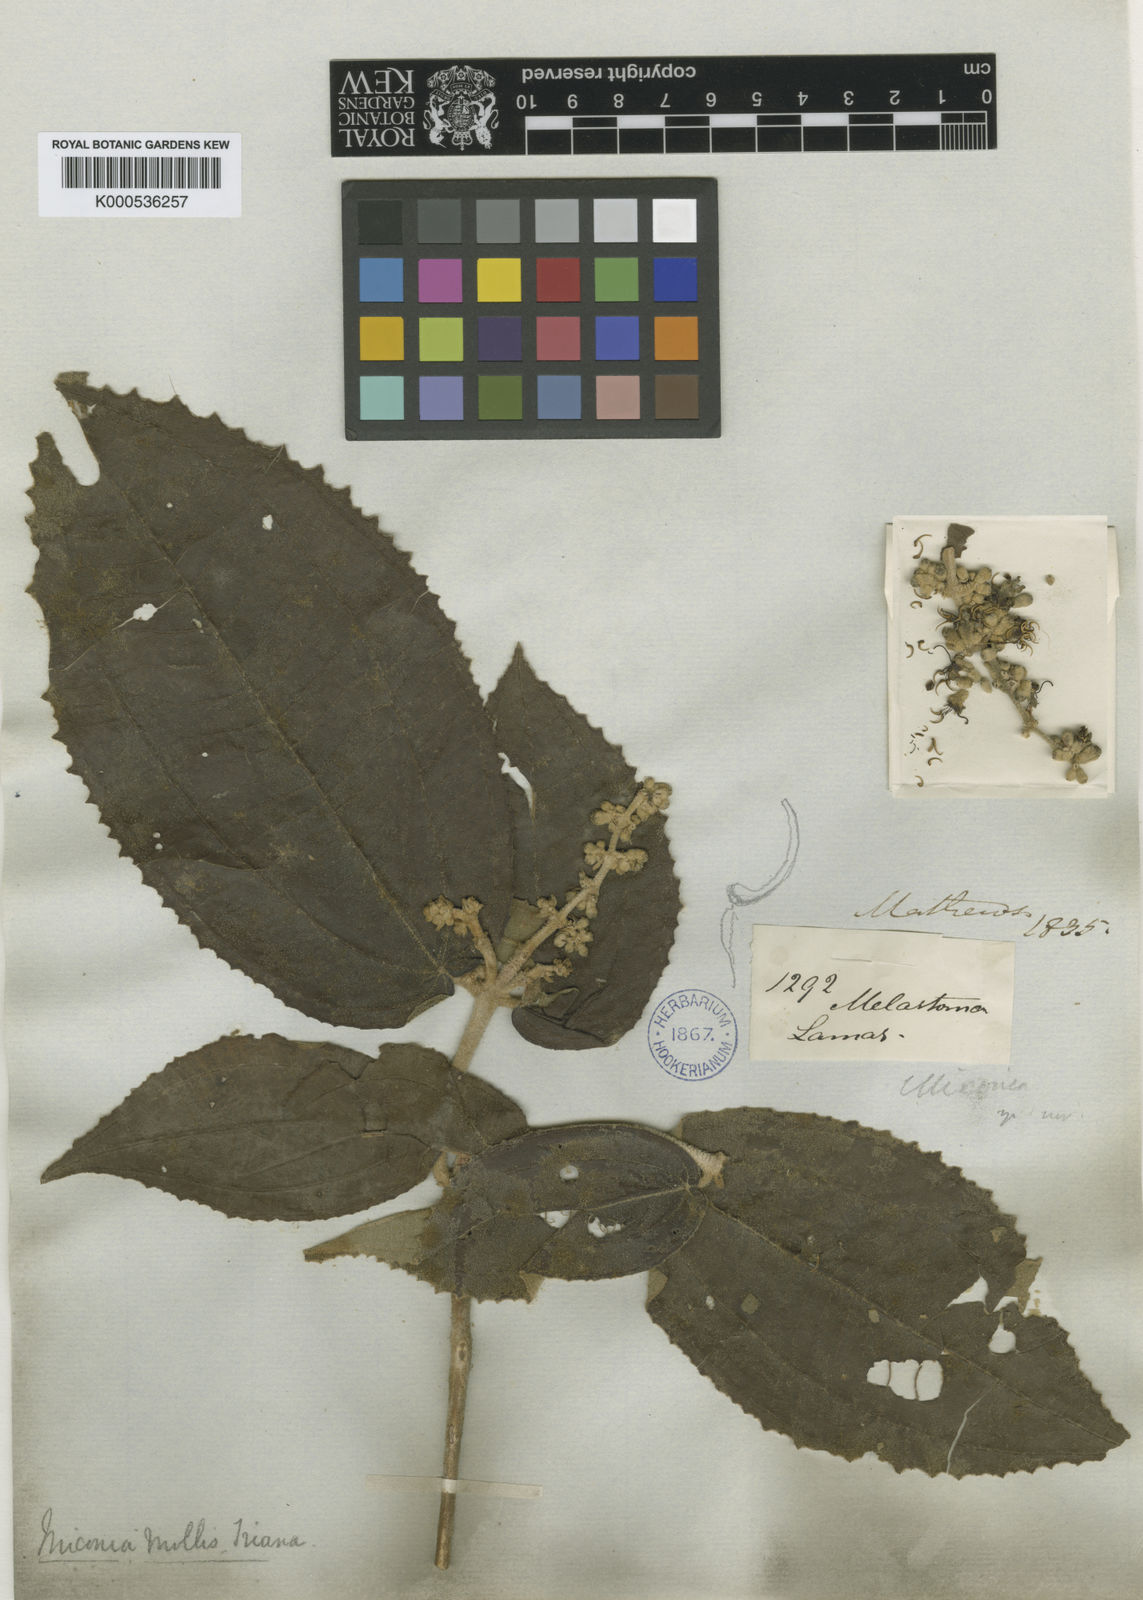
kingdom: Plantae
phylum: Tracheophyta
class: Magnoliopsida
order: Myrtales
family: Melastomataceae
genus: Miconia
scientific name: Miconia mollis
